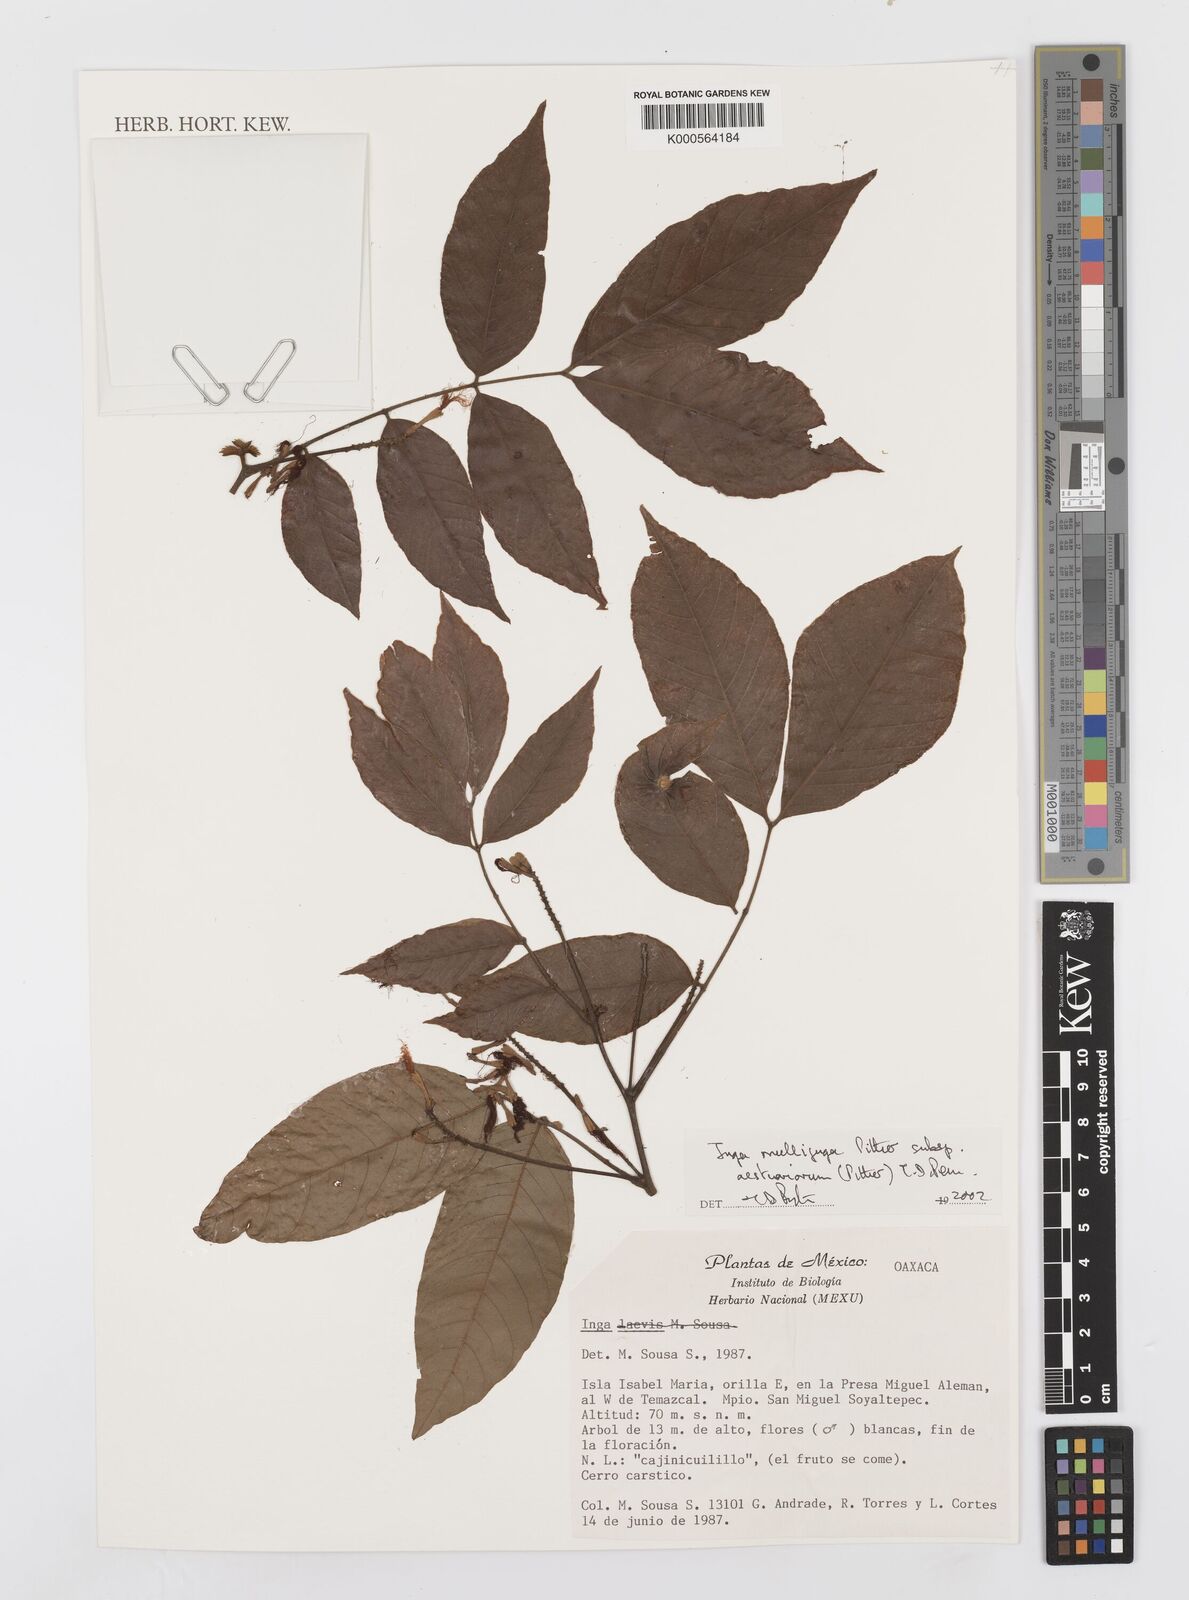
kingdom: Plantae
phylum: Tracheophyta
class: Magnoliopsida
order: Fabales
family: Fabaceae
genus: Inga
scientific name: Inga multijuga
